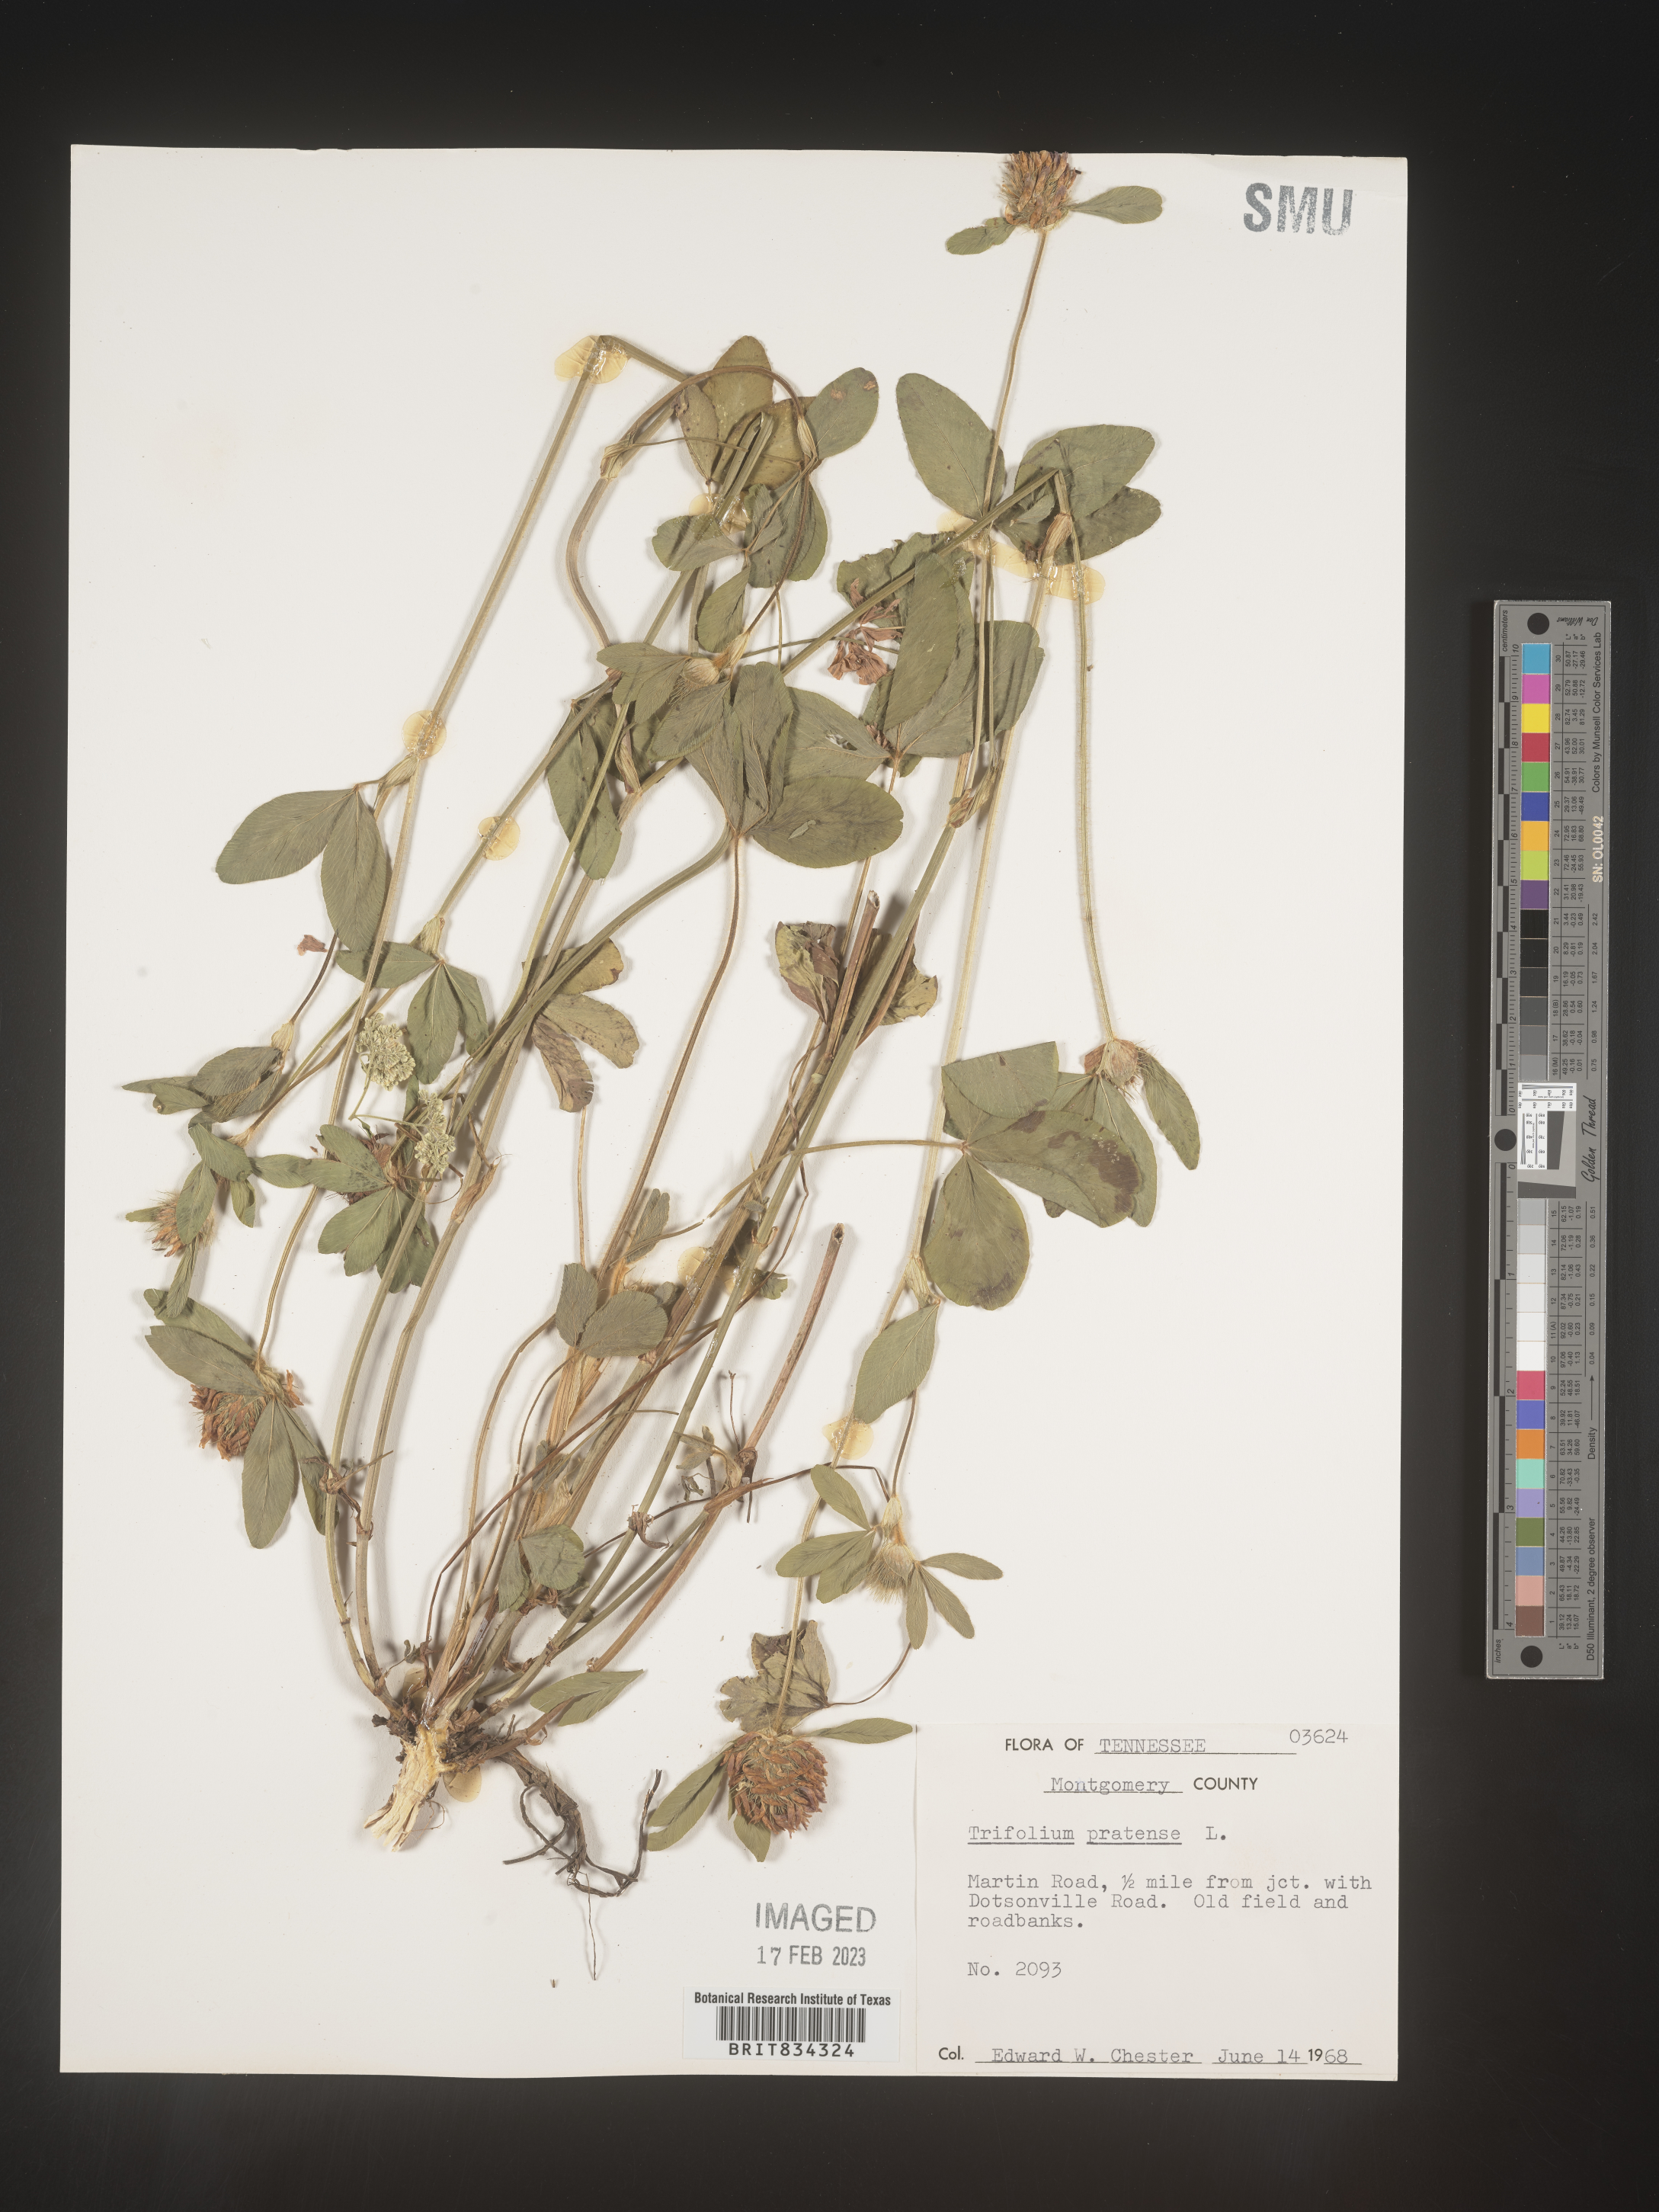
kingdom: Plantae
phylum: Tracheophyta
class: Magnoliopsida
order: Fabales
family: Fabaceae
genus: Trifolium
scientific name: Trifolium pratense
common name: Red clover
